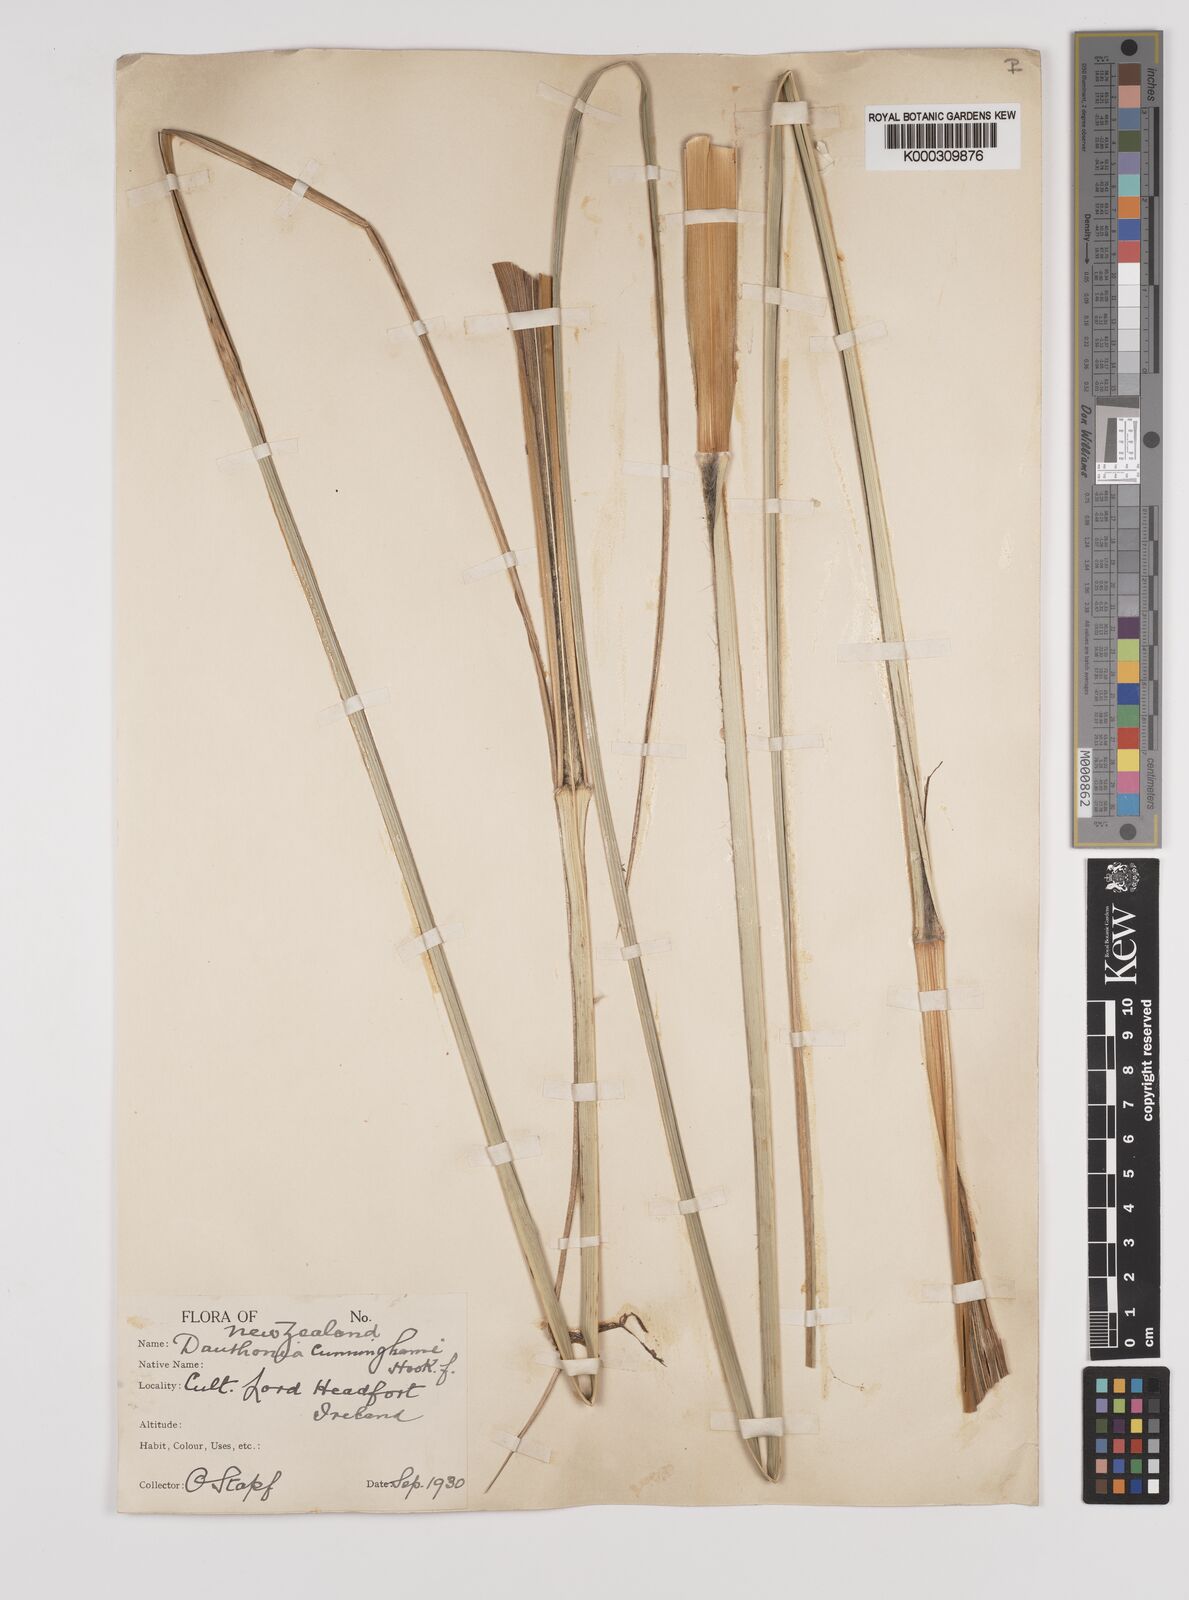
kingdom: Plantae
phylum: Tracheophyta
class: Liliopsida
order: Poales
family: Poaceae
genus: Chionochloa
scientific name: Chionochloa conspicua
